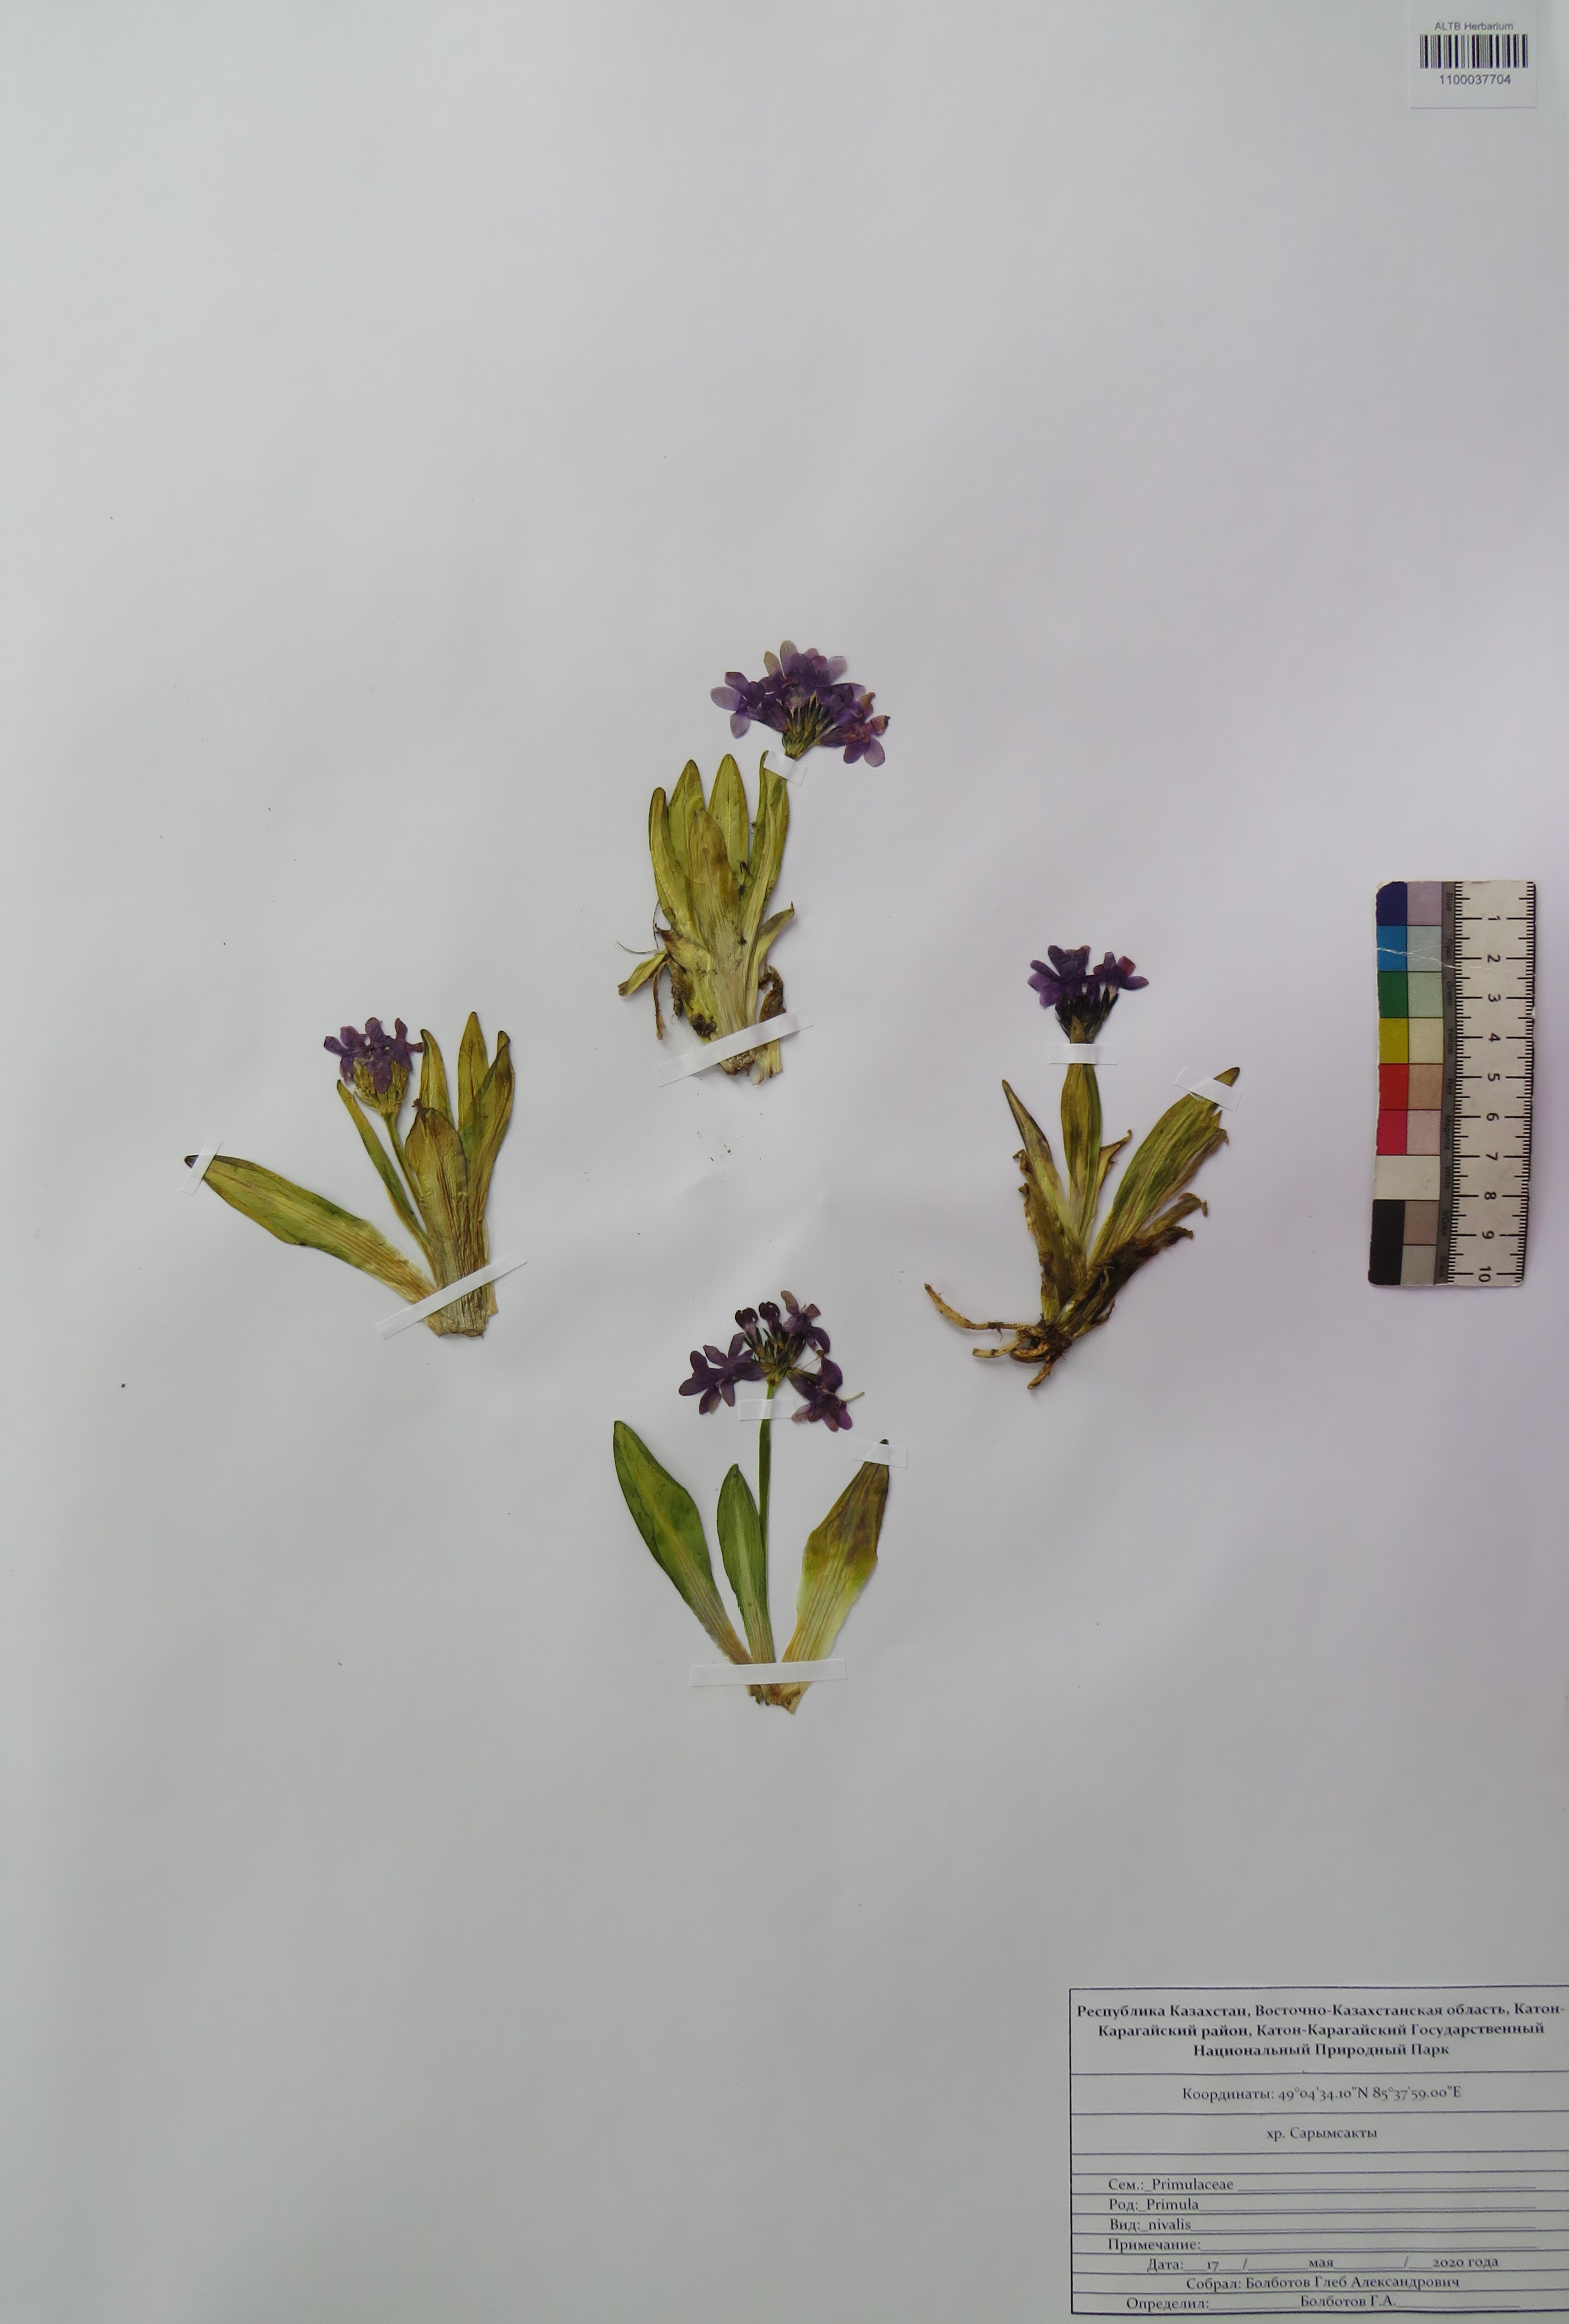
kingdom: Plantae
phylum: Tracheophyta
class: Magnoliopsida
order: Ericales
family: Primulaceae
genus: Primula
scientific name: Primula nivalis
